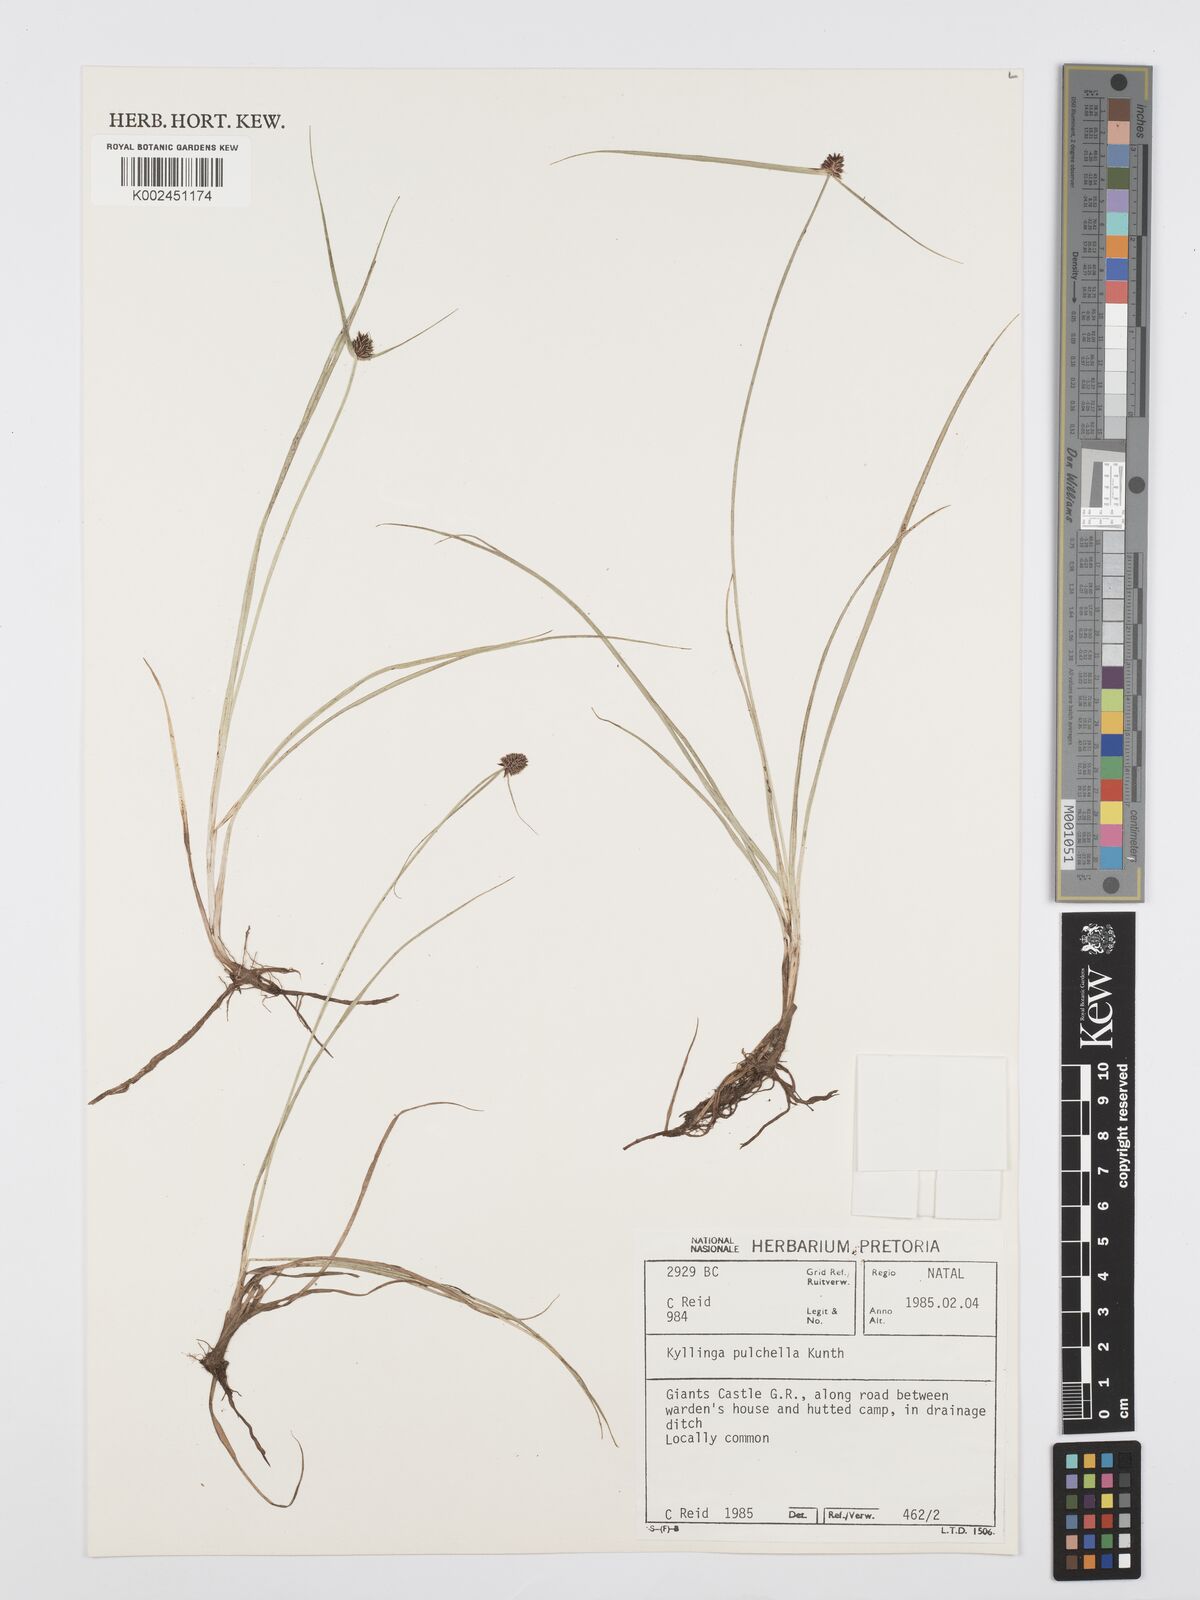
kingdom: Plantae
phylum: Tracheophyta
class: Liliopsida
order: Poales
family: Cyperaceae
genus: Cyperus
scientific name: Cyperus
